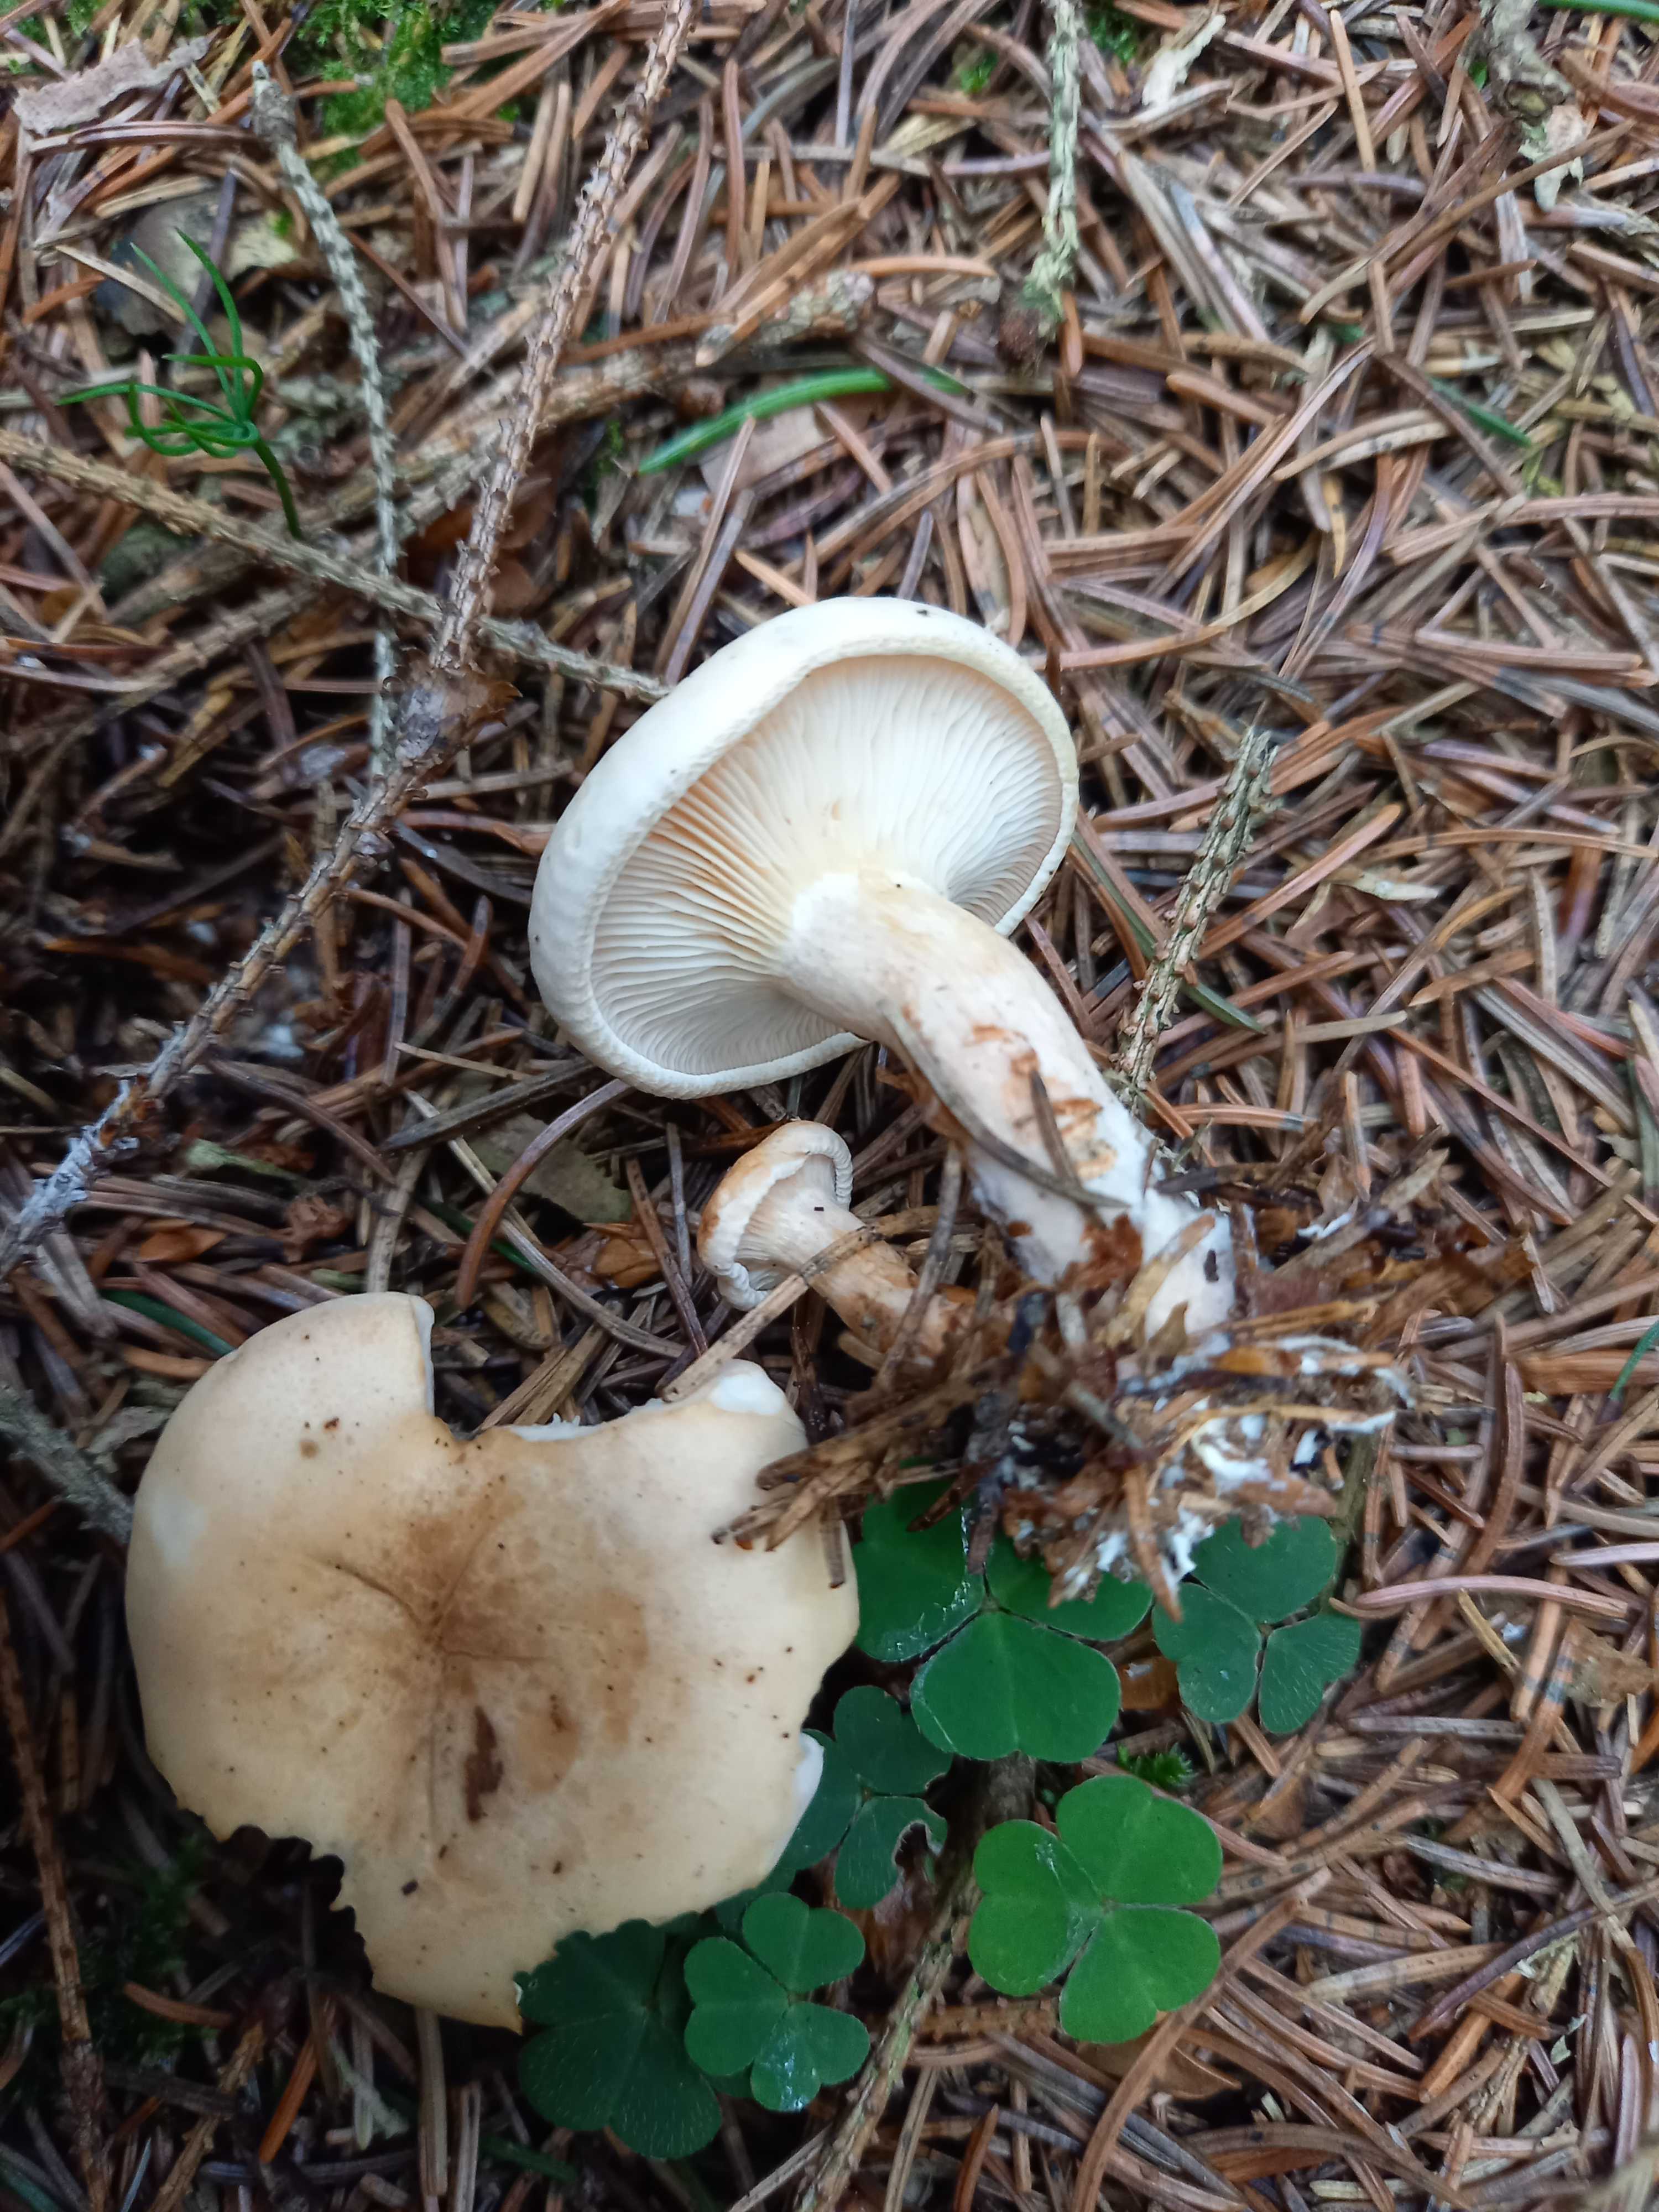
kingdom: Fungi
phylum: Basidiomycota
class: Agaricomycetes
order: Agaricales
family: Entolomataceae
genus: Clitopilus
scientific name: Clitopilus prunulus
